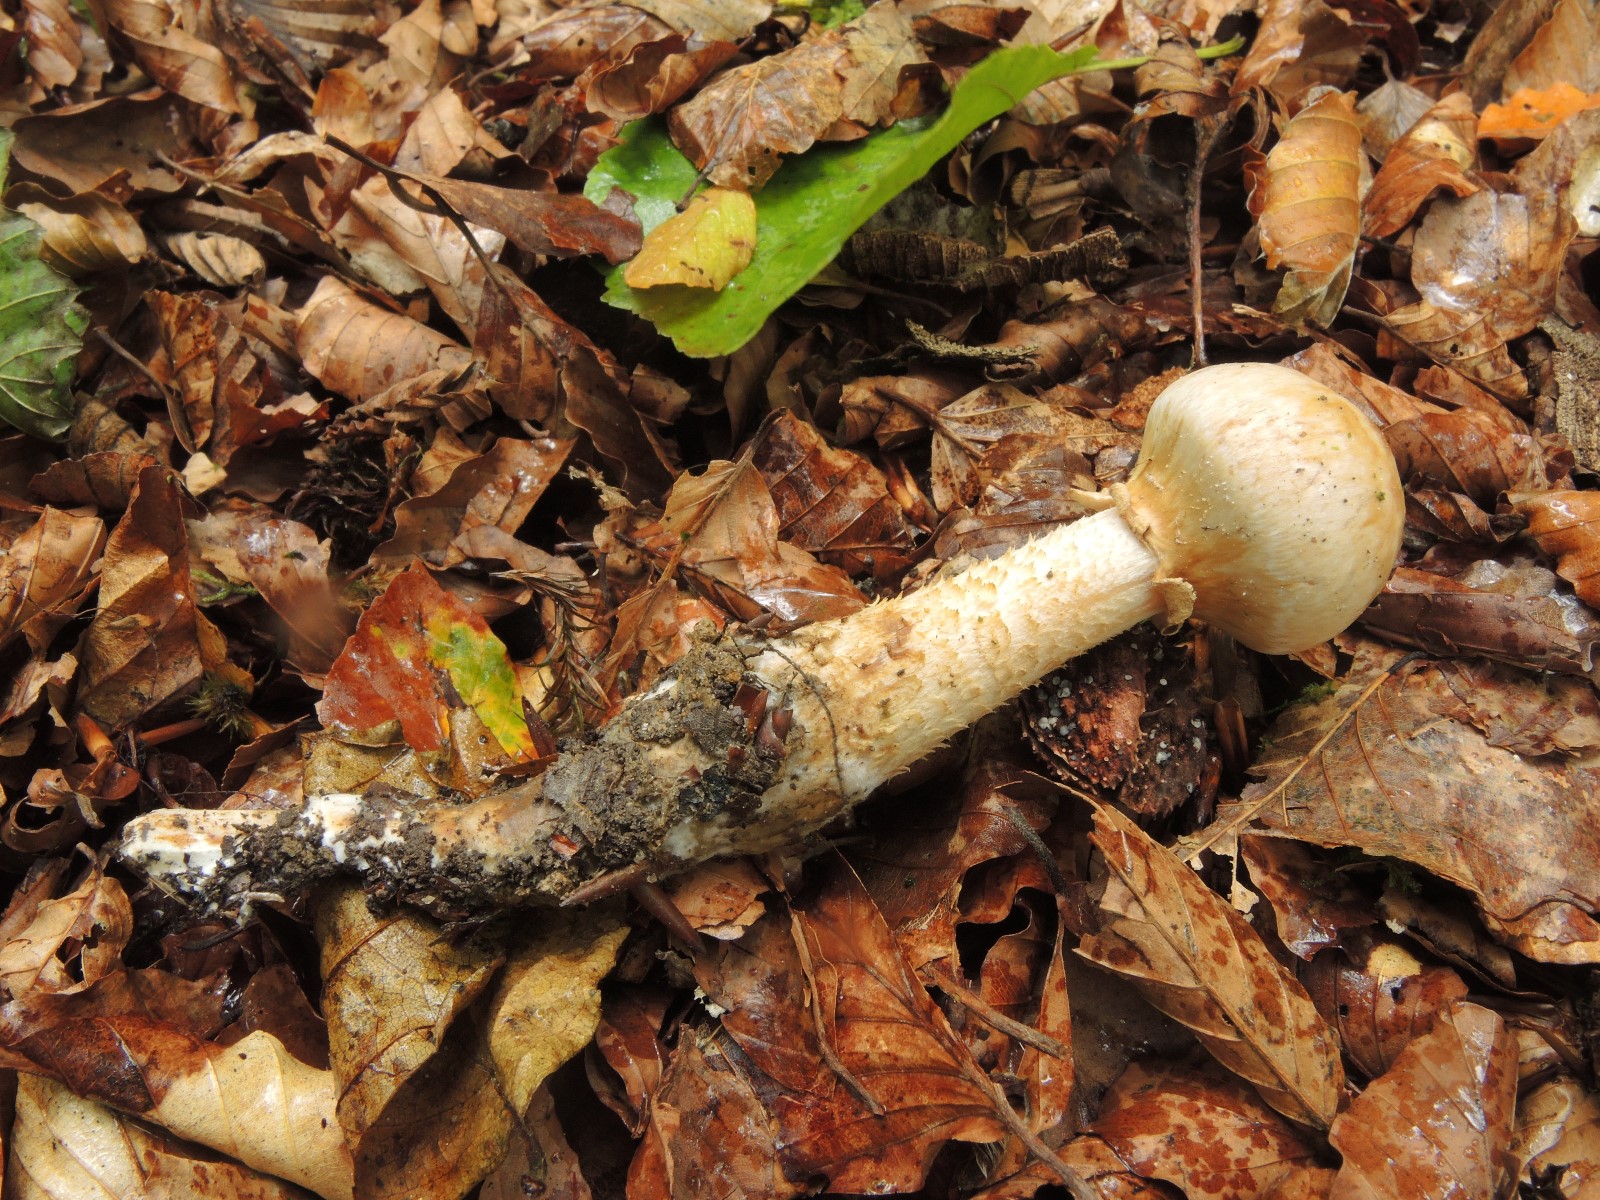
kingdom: Fungi
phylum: Basidiomycota
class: Agaricomycetes
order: Agaricales
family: Hymenogastraceae
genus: Hebeloma
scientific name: Hebeloma radicosum
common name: pælerods-tåreblad
